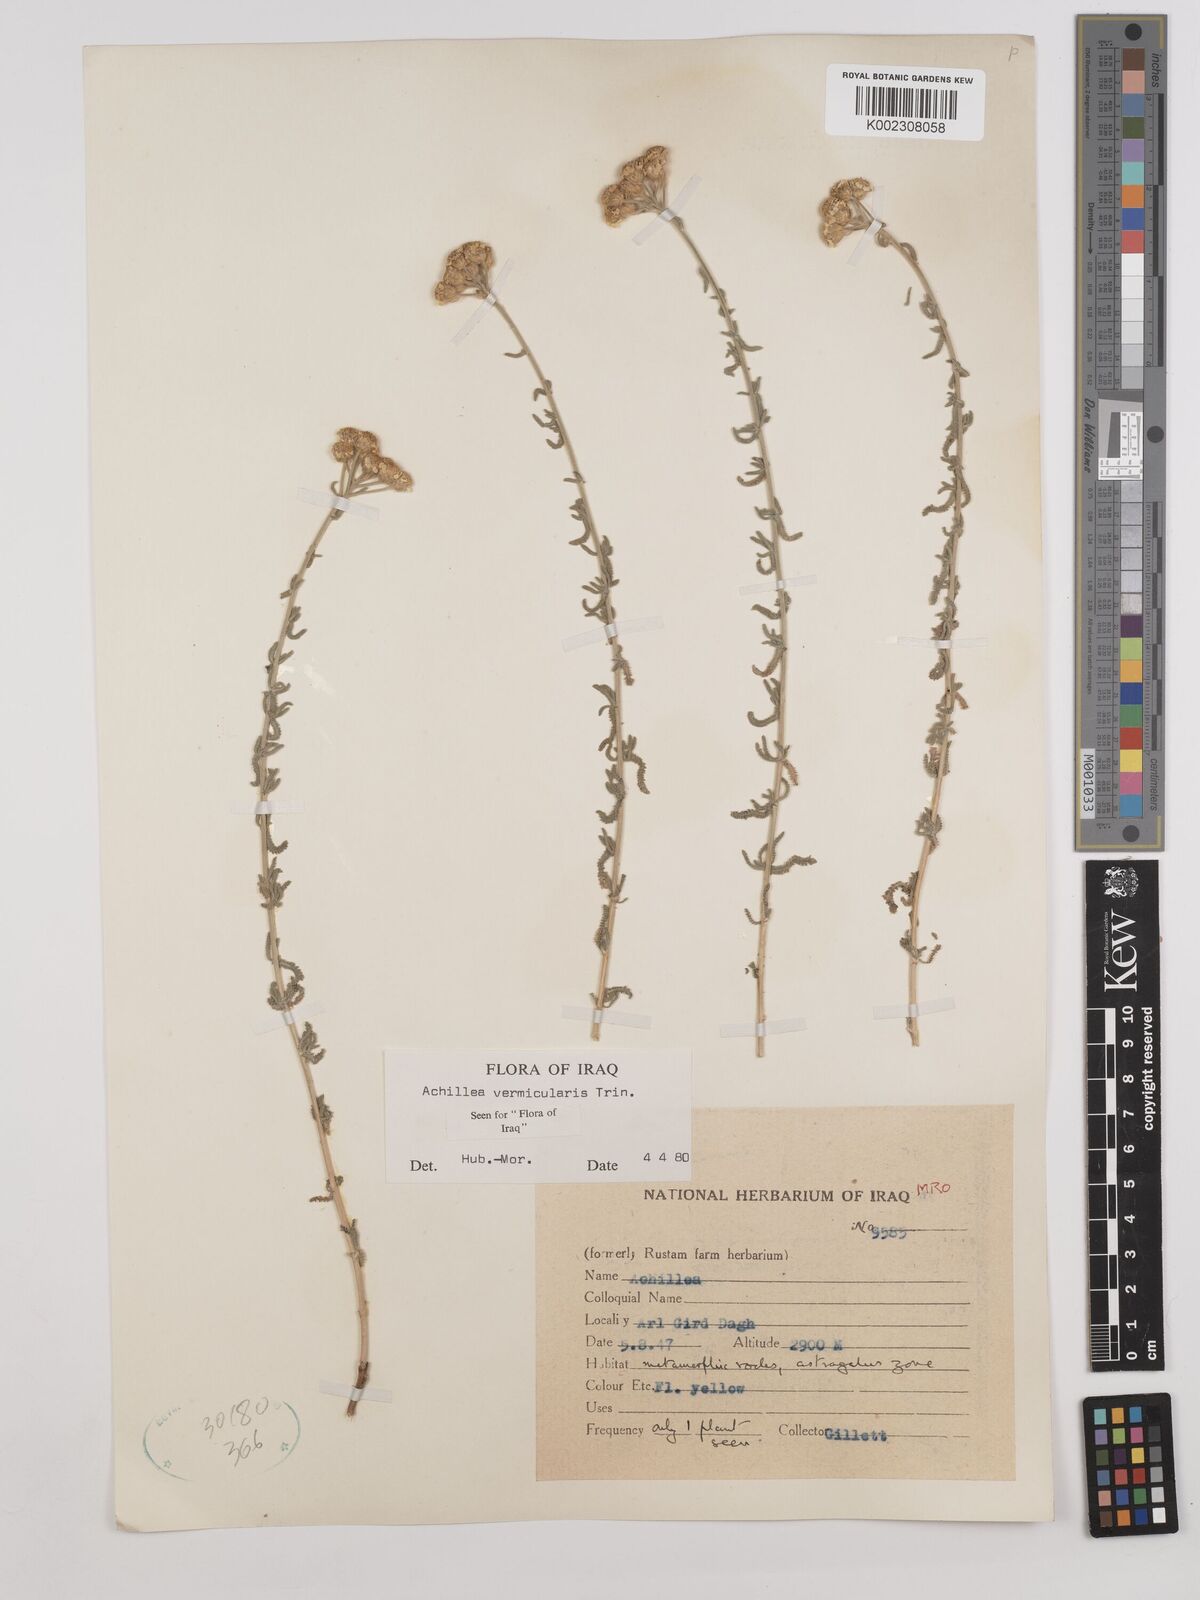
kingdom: Plantae
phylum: Tracheophyta
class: Magnoliopsida
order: Asterales
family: Asteraceae
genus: Achillea
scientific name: Achillea vermicularis
